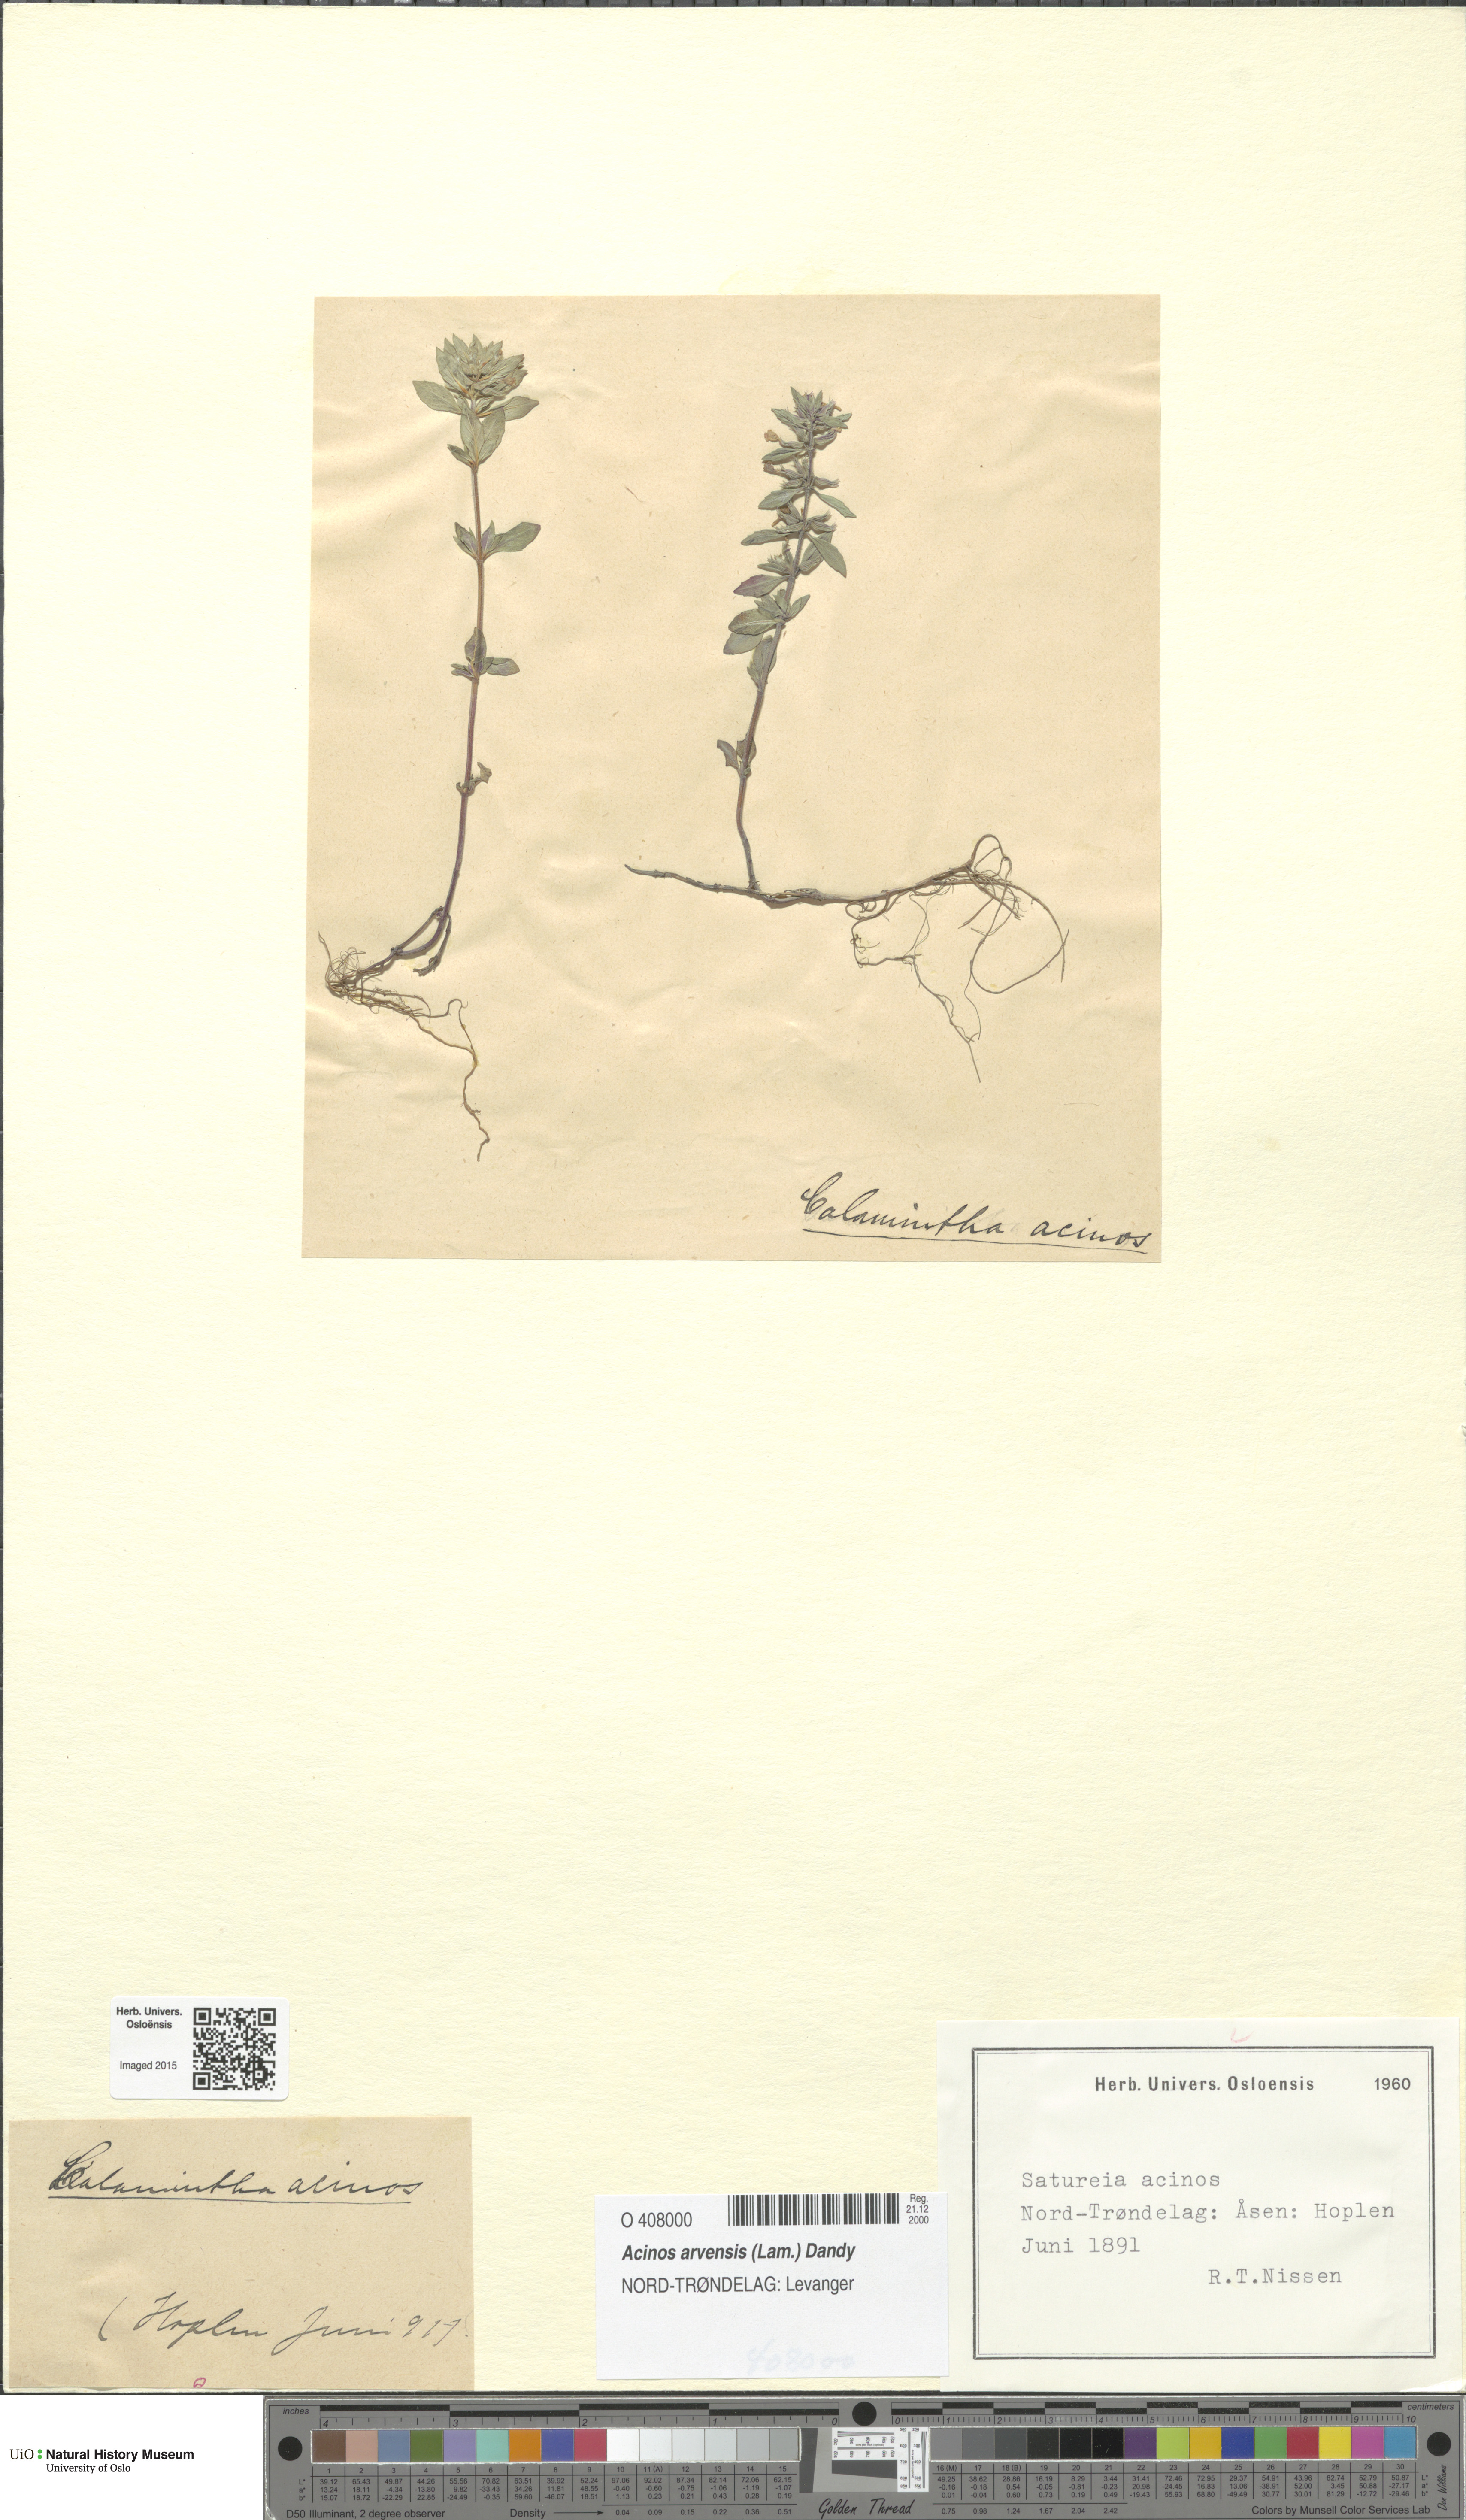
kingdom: Plantae
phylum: Tracheophyta
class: Magnoliopsida
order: Lamiales
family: Lamiaceae
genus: Clinopodium
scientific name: Clinopodium acinos
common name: Basil thyme
